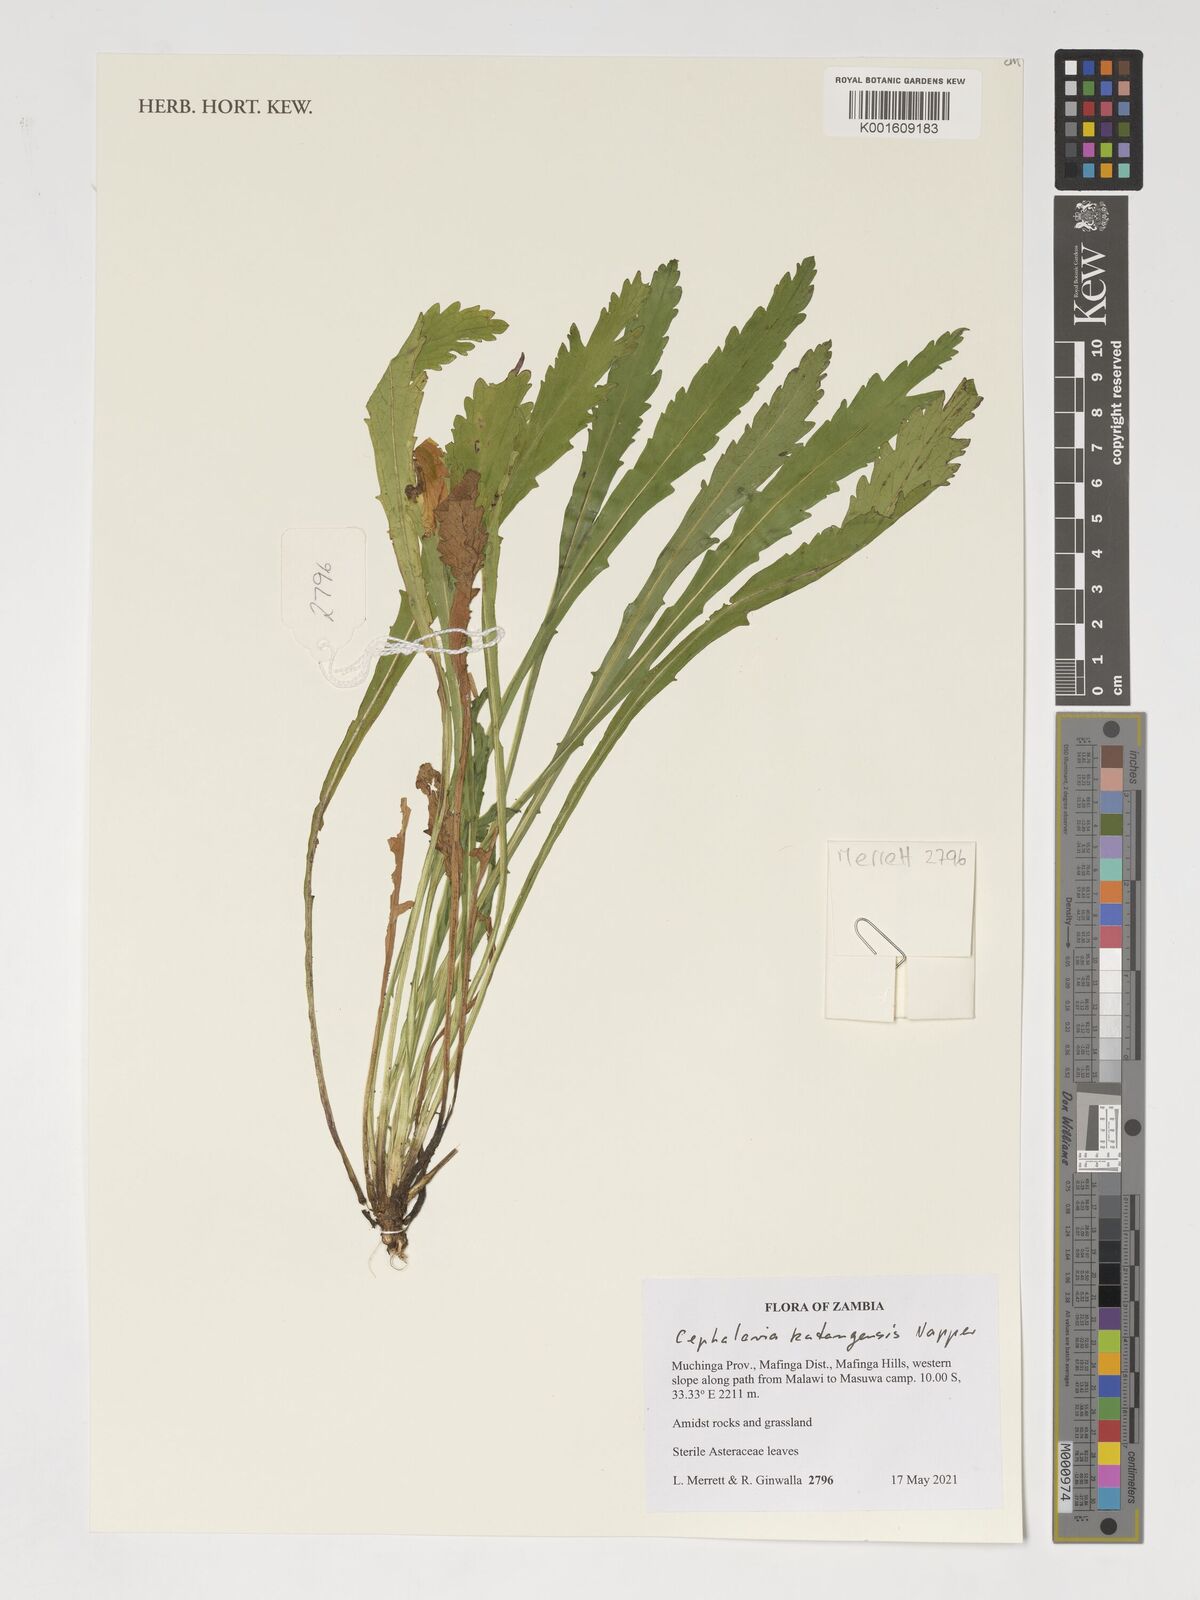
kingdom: Plantae
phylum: Tracheophyta
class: Magnoliopsida
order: Dipsacales
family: Caprifoliaceae
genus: Cephalaria
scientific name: Cephalaria katangensis
